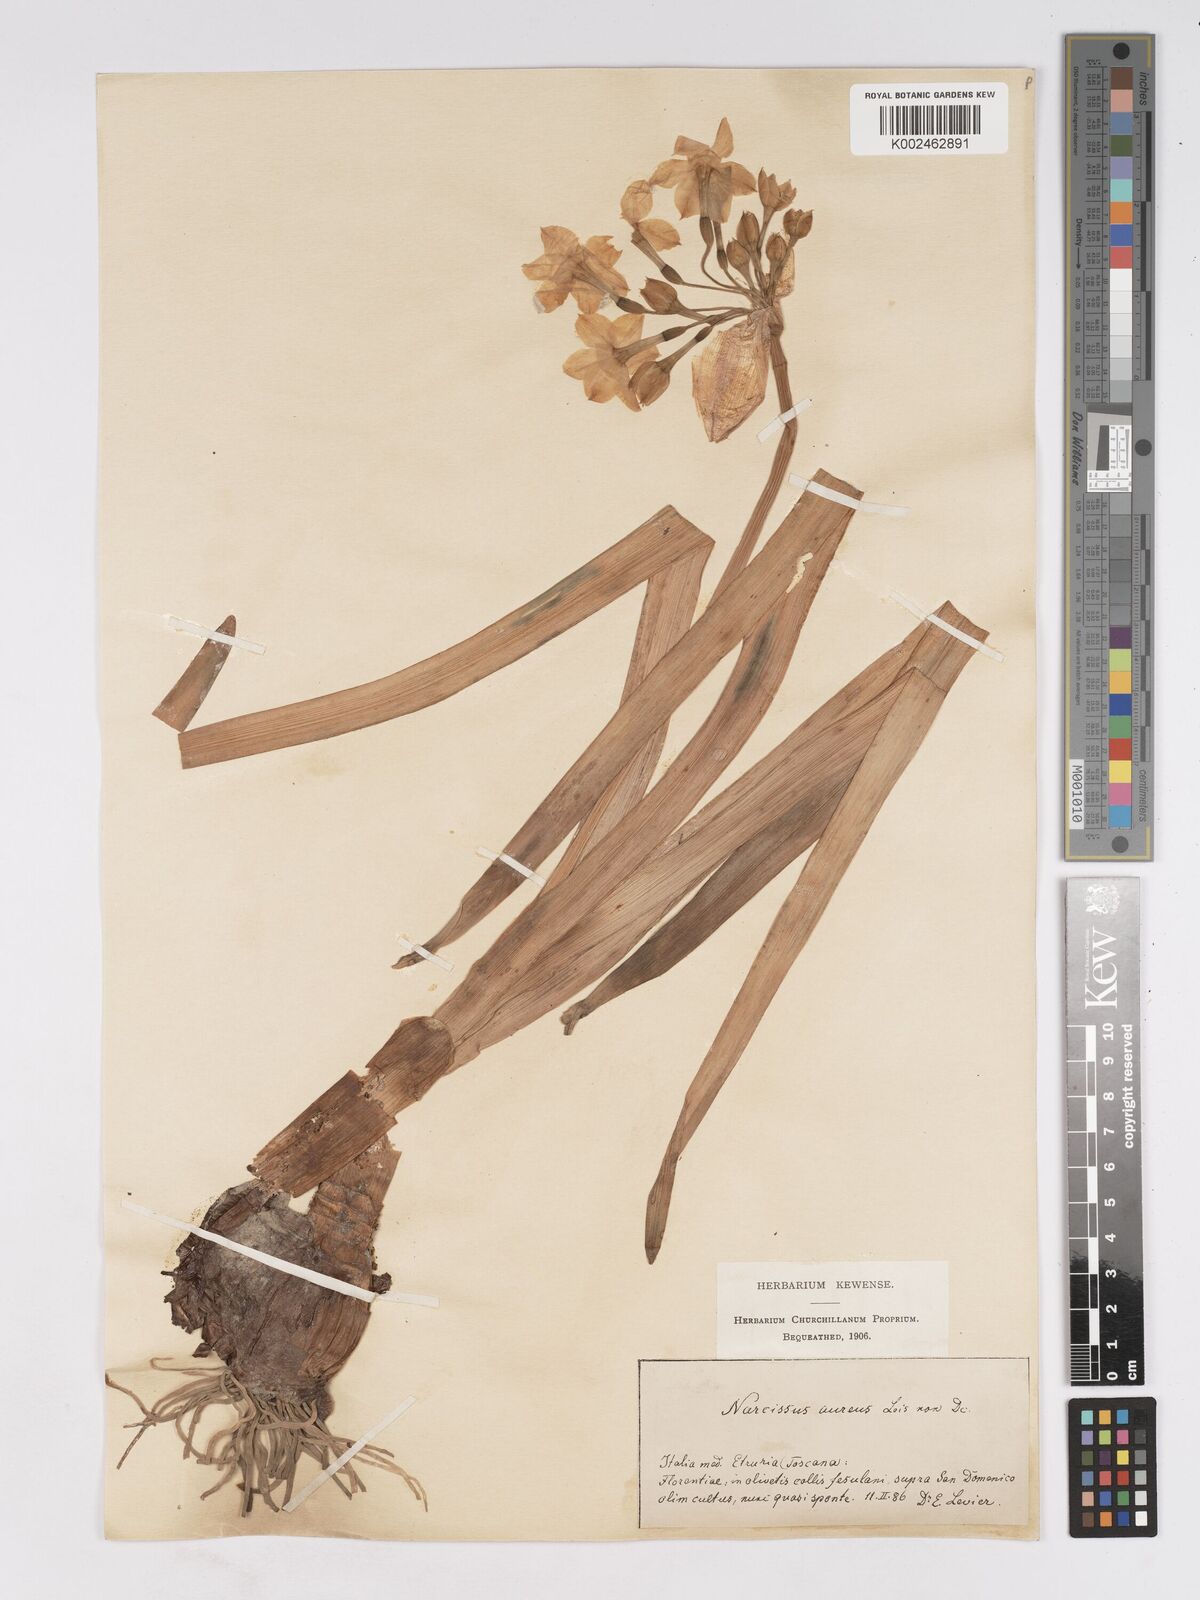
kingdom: Plantae
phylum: Tracheophyta
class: Liliopsida
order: Asparagales
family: Amaryllidaceae
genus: Narcissus
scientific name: Narcissus
